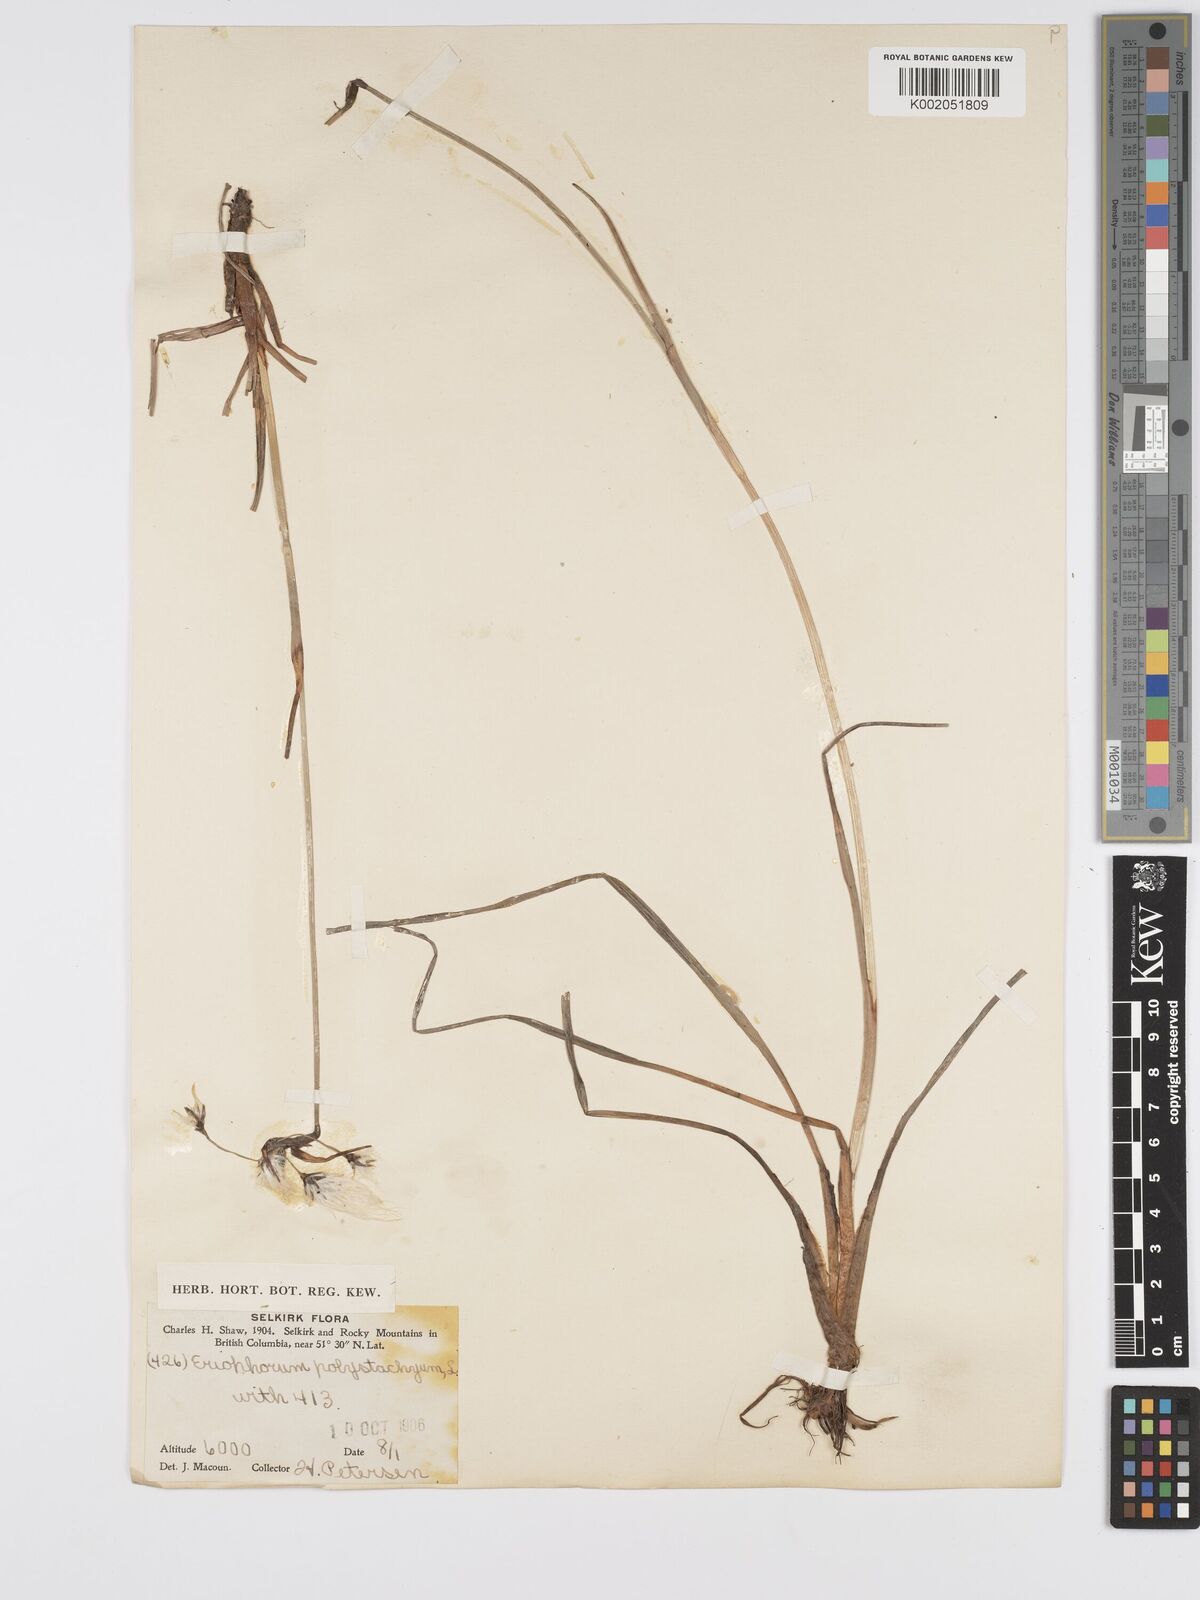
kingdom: Plantae
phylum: Tracheophyta
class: Liliopsida
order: Poales
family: Cyperaceae
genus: Eriophorum
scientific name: Eriophorum angustifolium
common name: Common cottongrass
